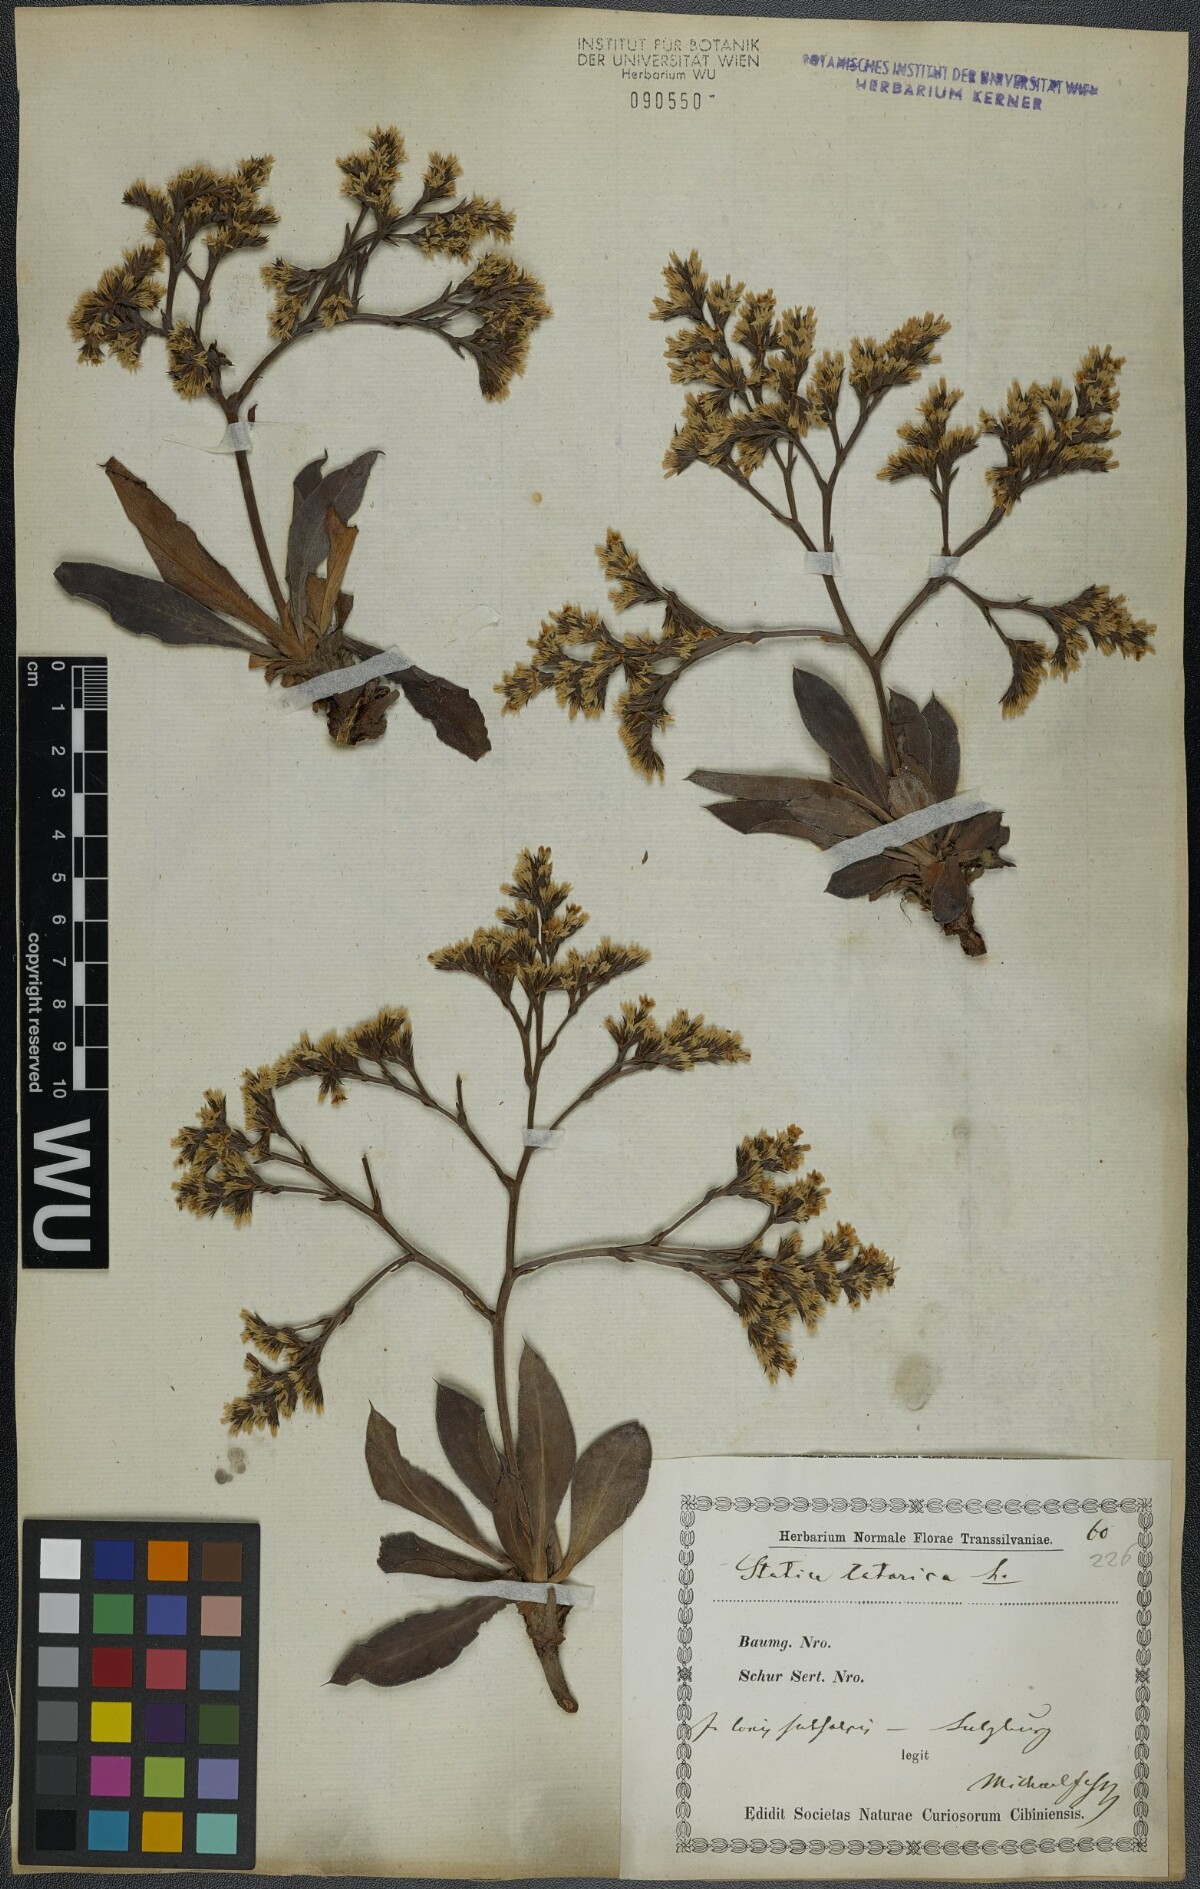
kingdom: Plantae
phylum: Tracheophyta
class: Magnoliopsida
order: Caryophyllales
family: Plumbaginaceae
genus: Goniolimon
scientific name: Goniolimon tataricum
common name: Statice
